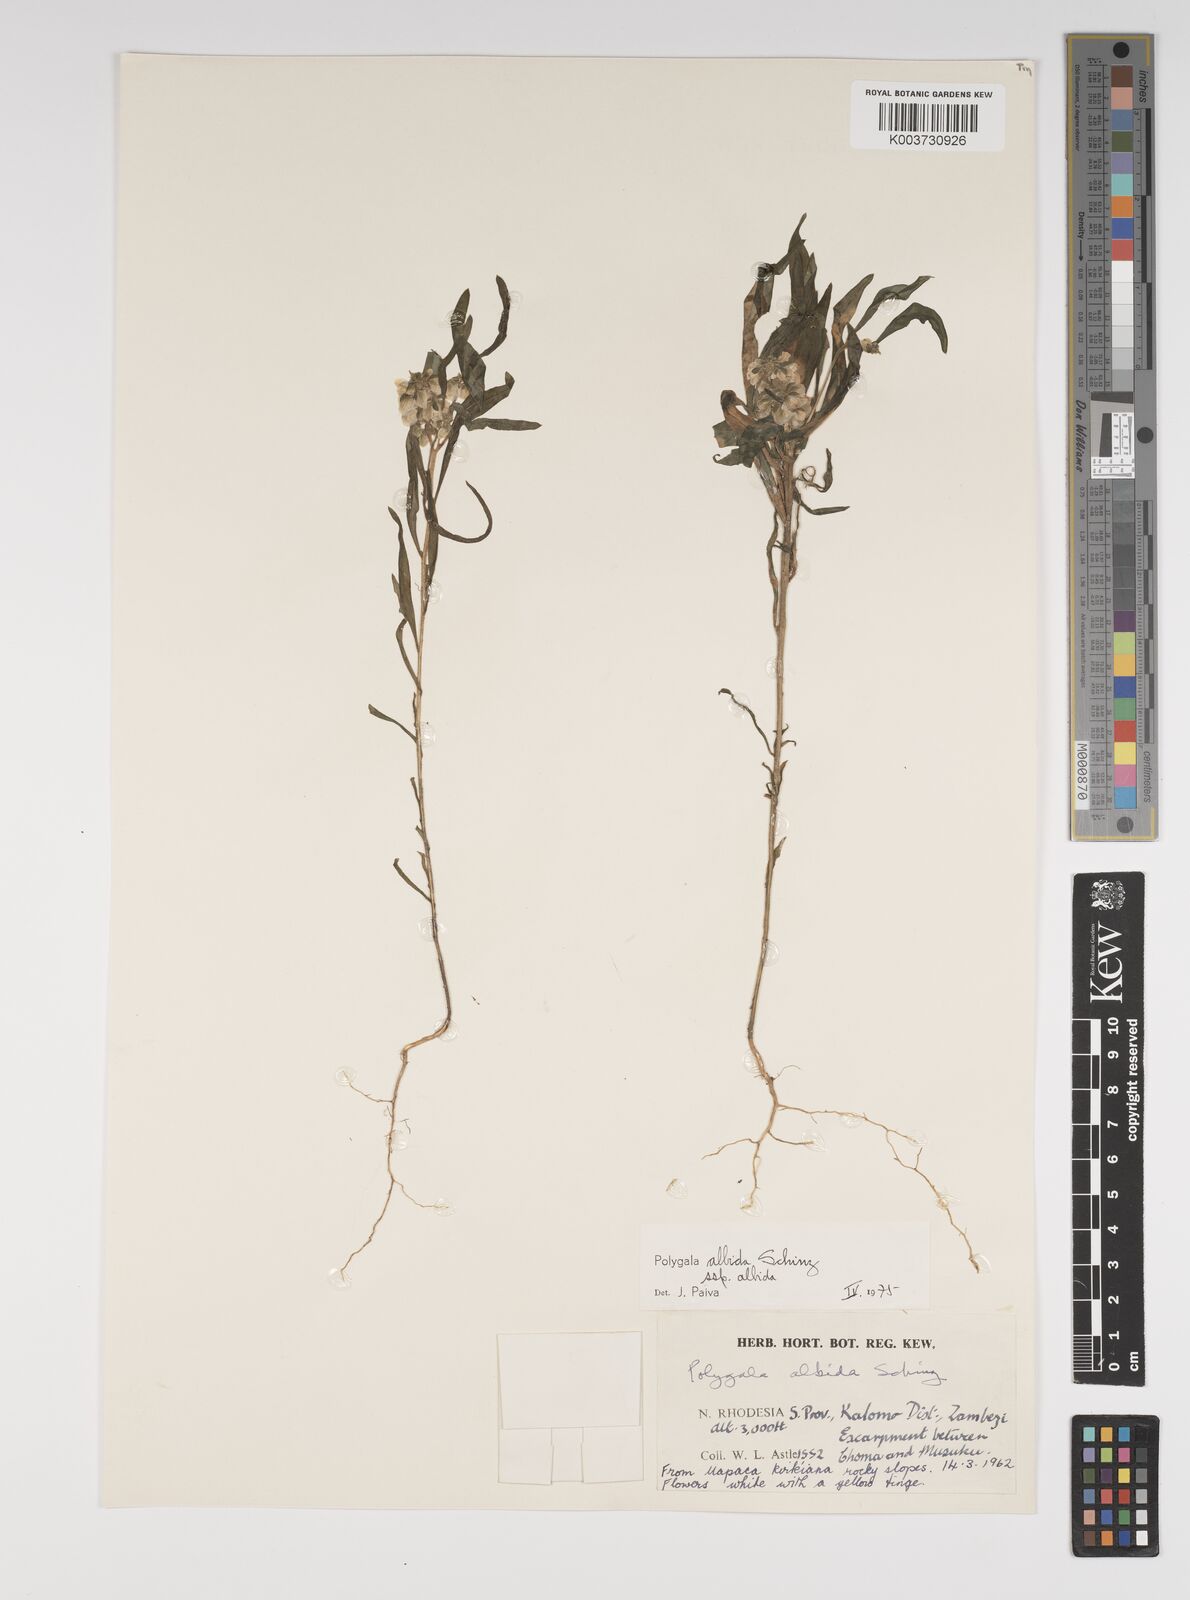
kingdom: Plantae
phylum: Tracheophyta
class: Magnoliopsida
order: Fabales
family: Polygalaceae
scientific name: Polygalaceae
